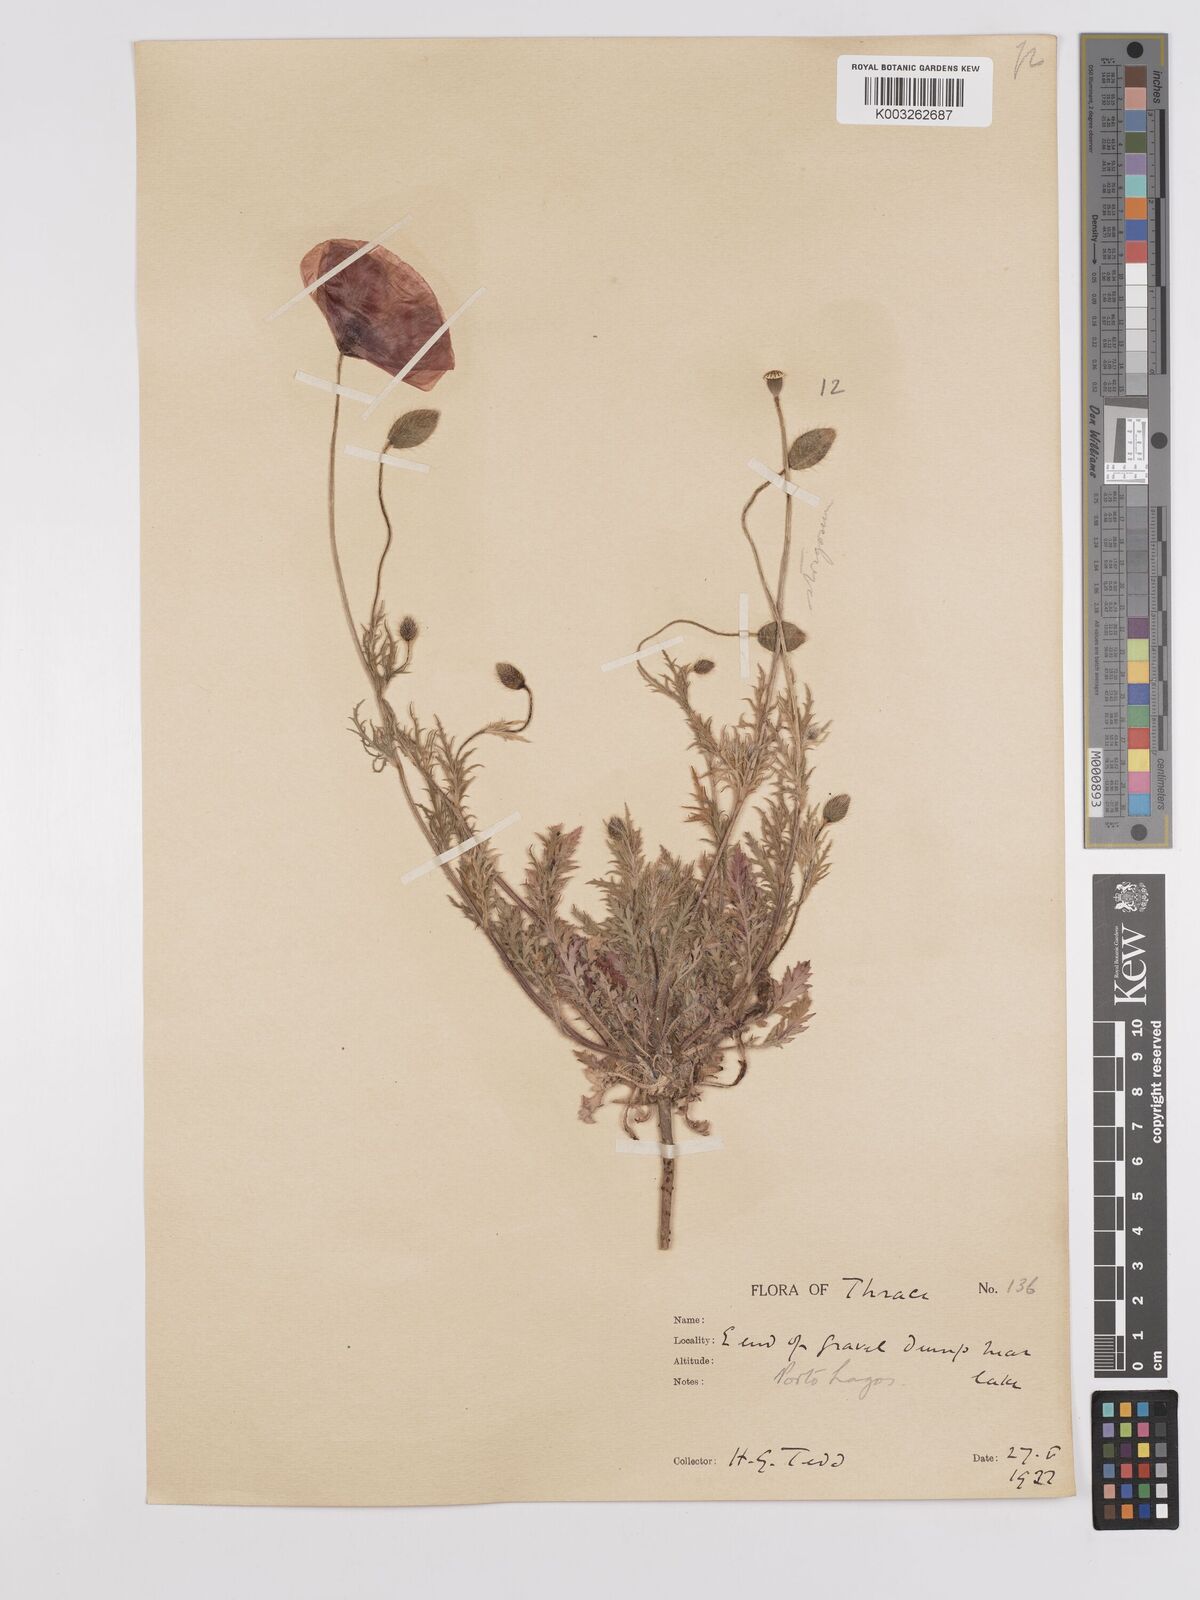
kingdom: Plantae
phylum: Tracheophyta
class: Magnoliopsida
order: Ranunculales
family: Papaveraceae
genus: Papaver
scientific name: Papaver
